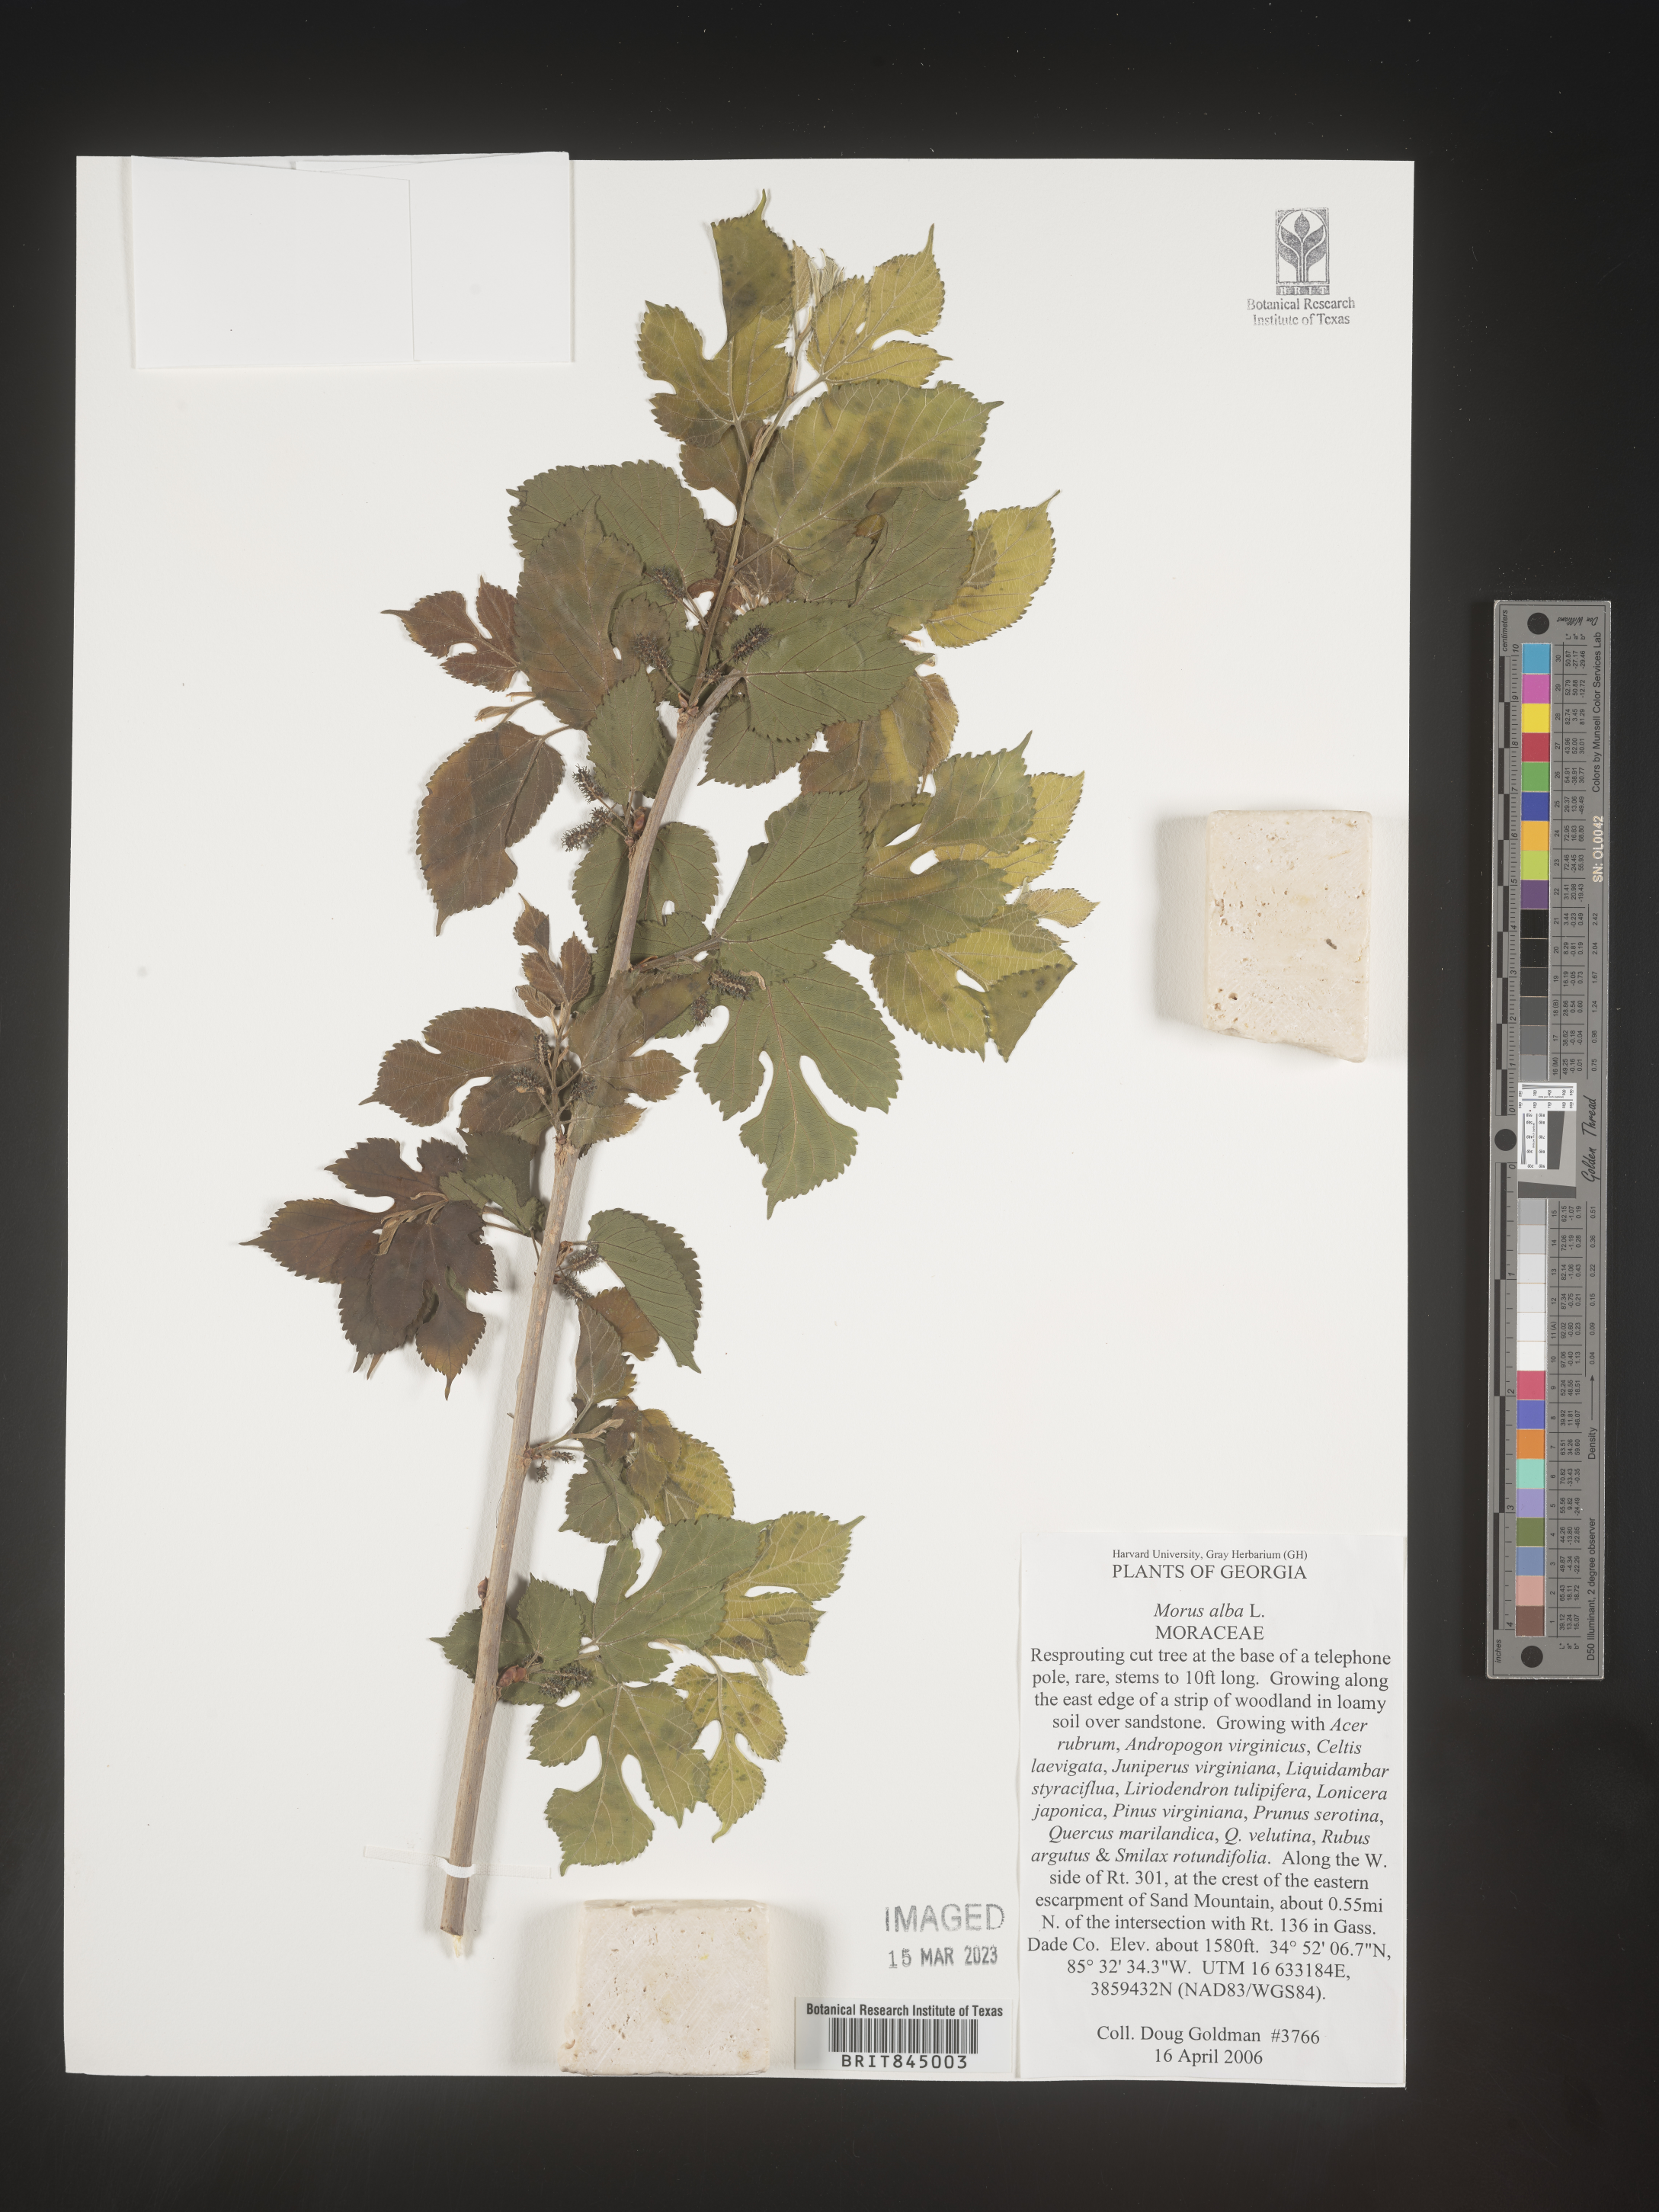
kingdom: Plantae
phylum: Tracheophyta
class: Magnoliopsida
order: Rosales
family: Moraceae
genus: Morus
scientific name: Morus alba
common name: White mulberry
